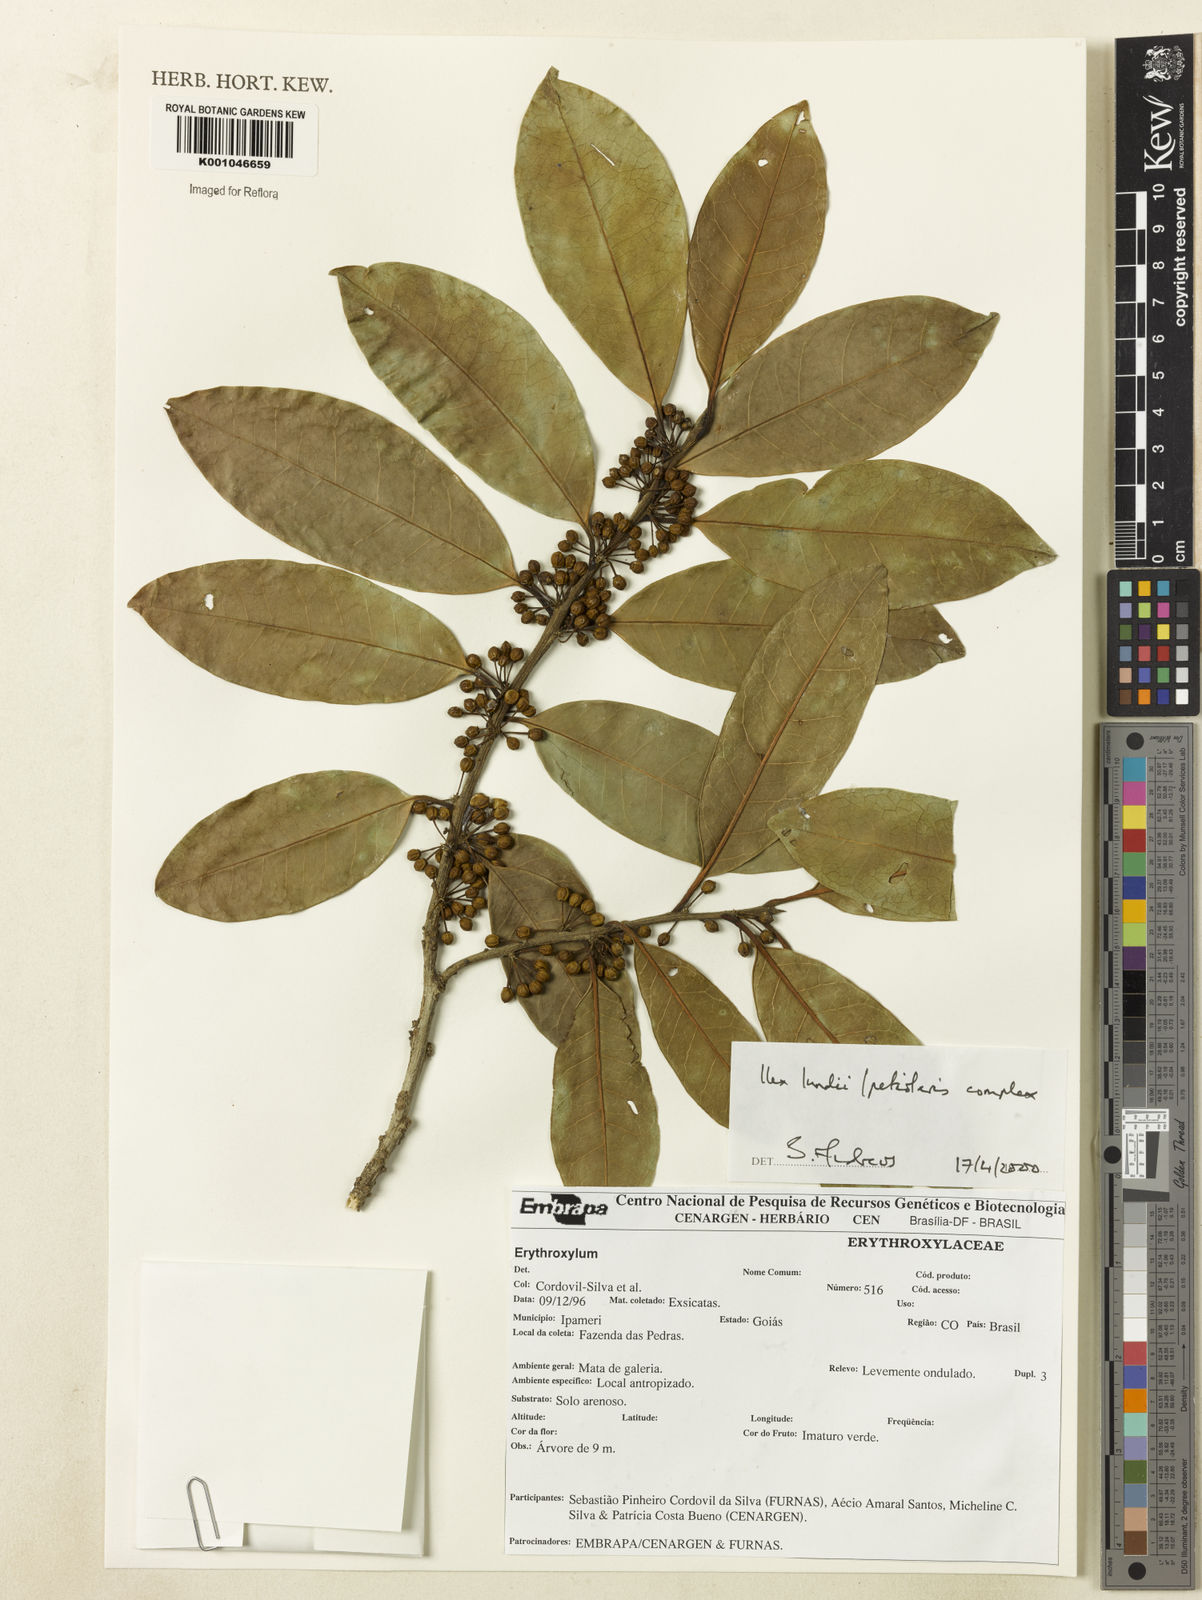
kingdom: Plantae
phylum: Tracheophyta
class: Magnoliopsida
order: Aquifoliales
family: Aquifoliaceae
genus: Ilex
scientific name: Ilex lundii
